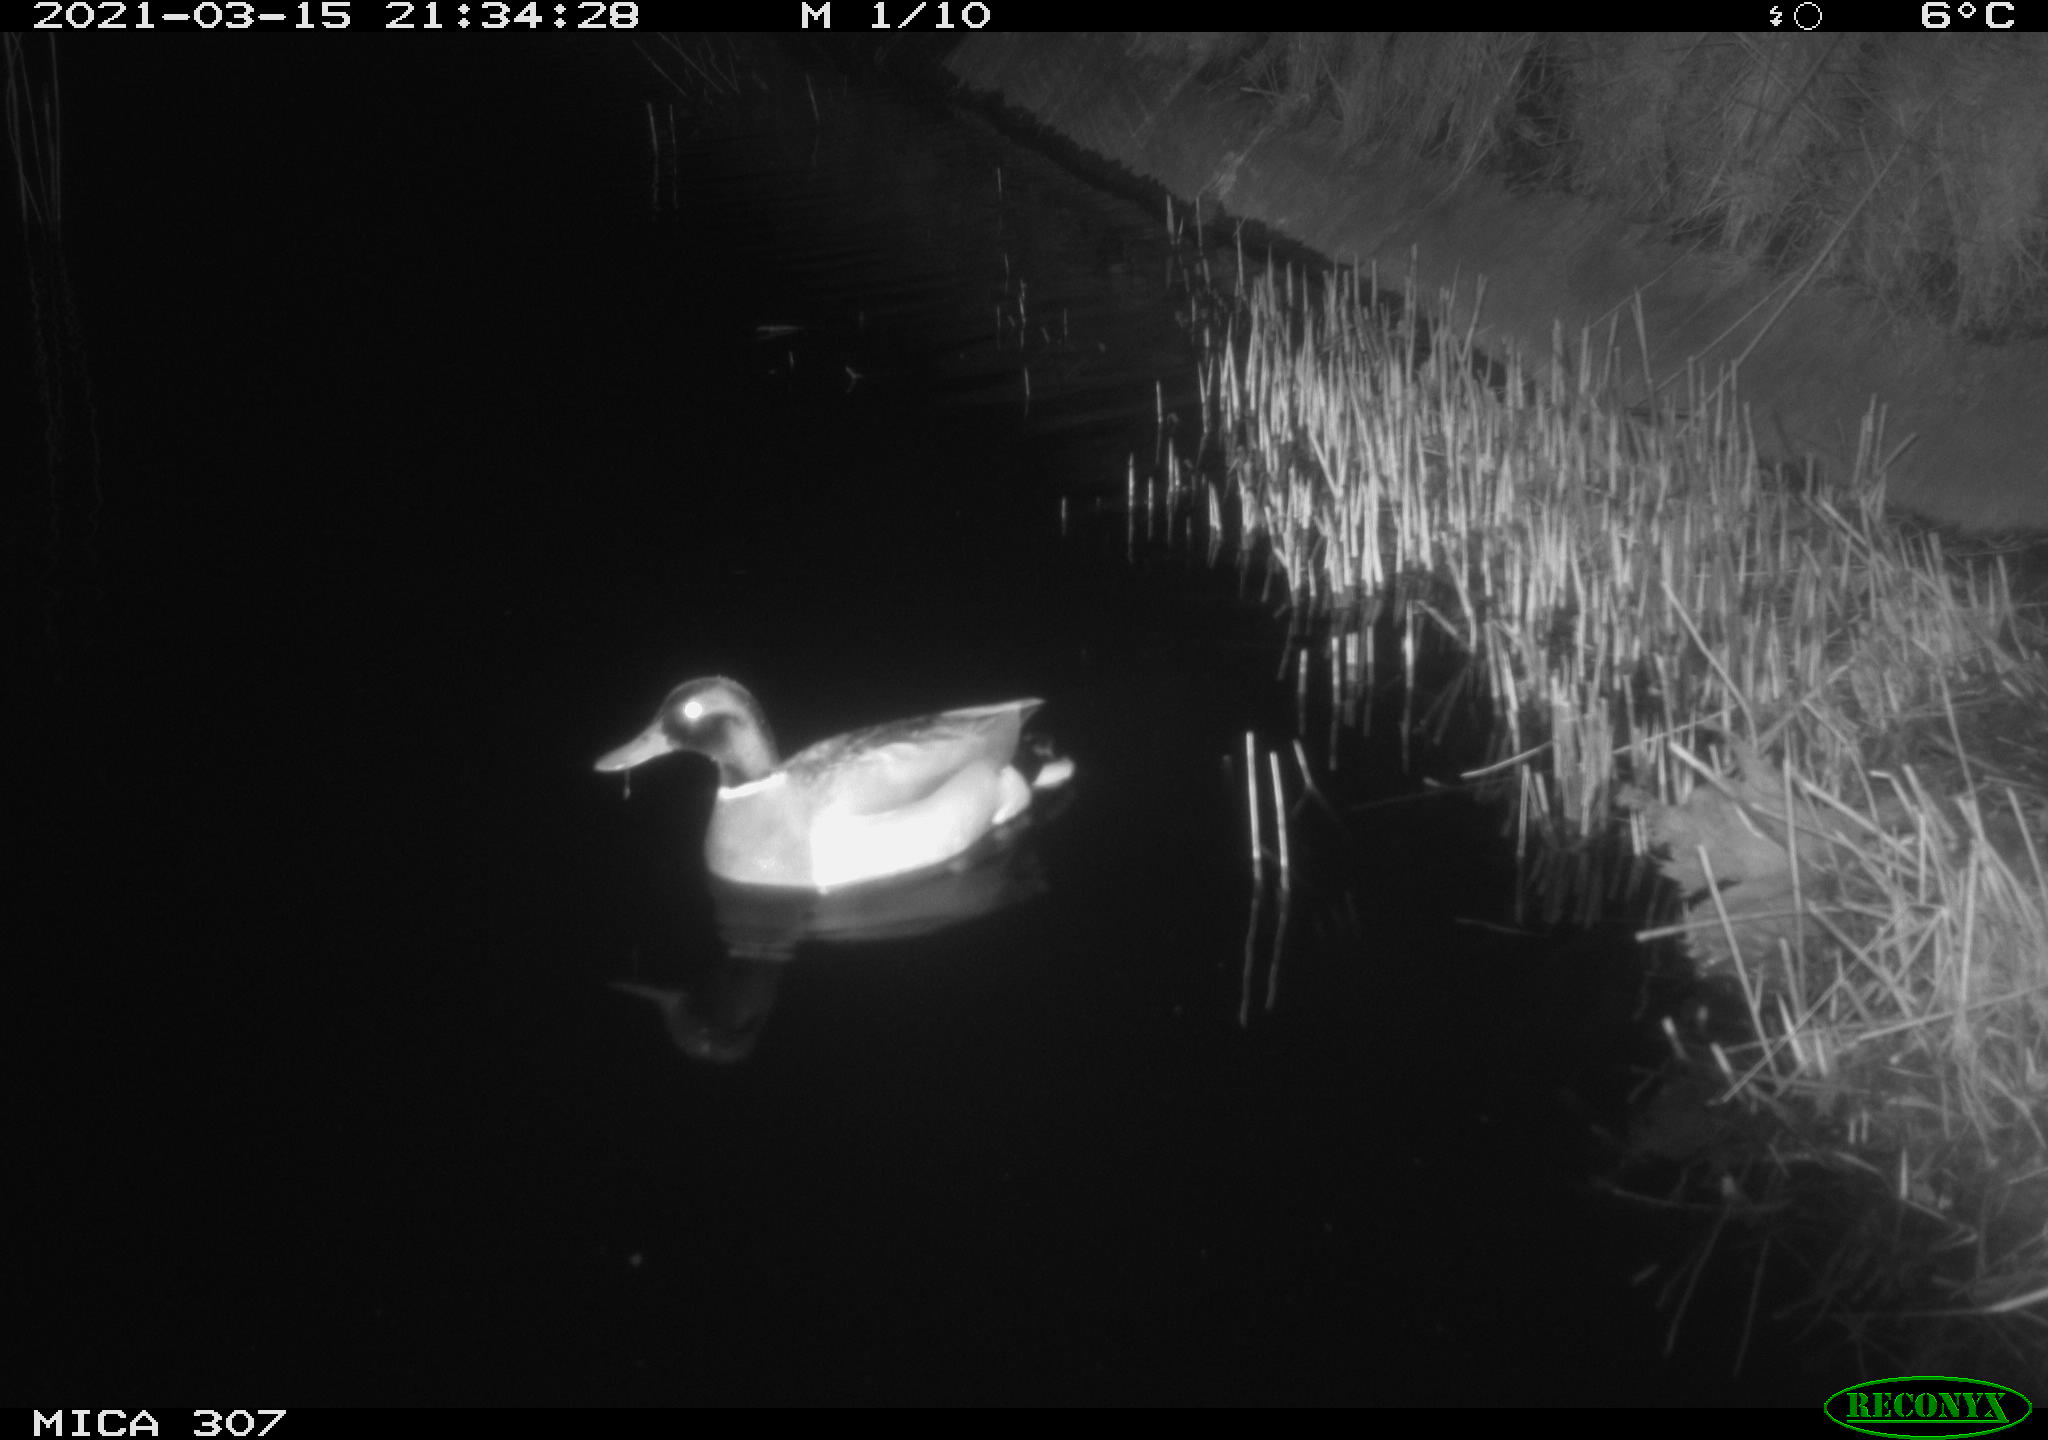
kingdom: Animalia
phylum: Chordata
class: Aves
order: Anseriformes
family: Anatidae
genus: Anas
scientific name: Anas platyrhynchos
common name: Mallard
